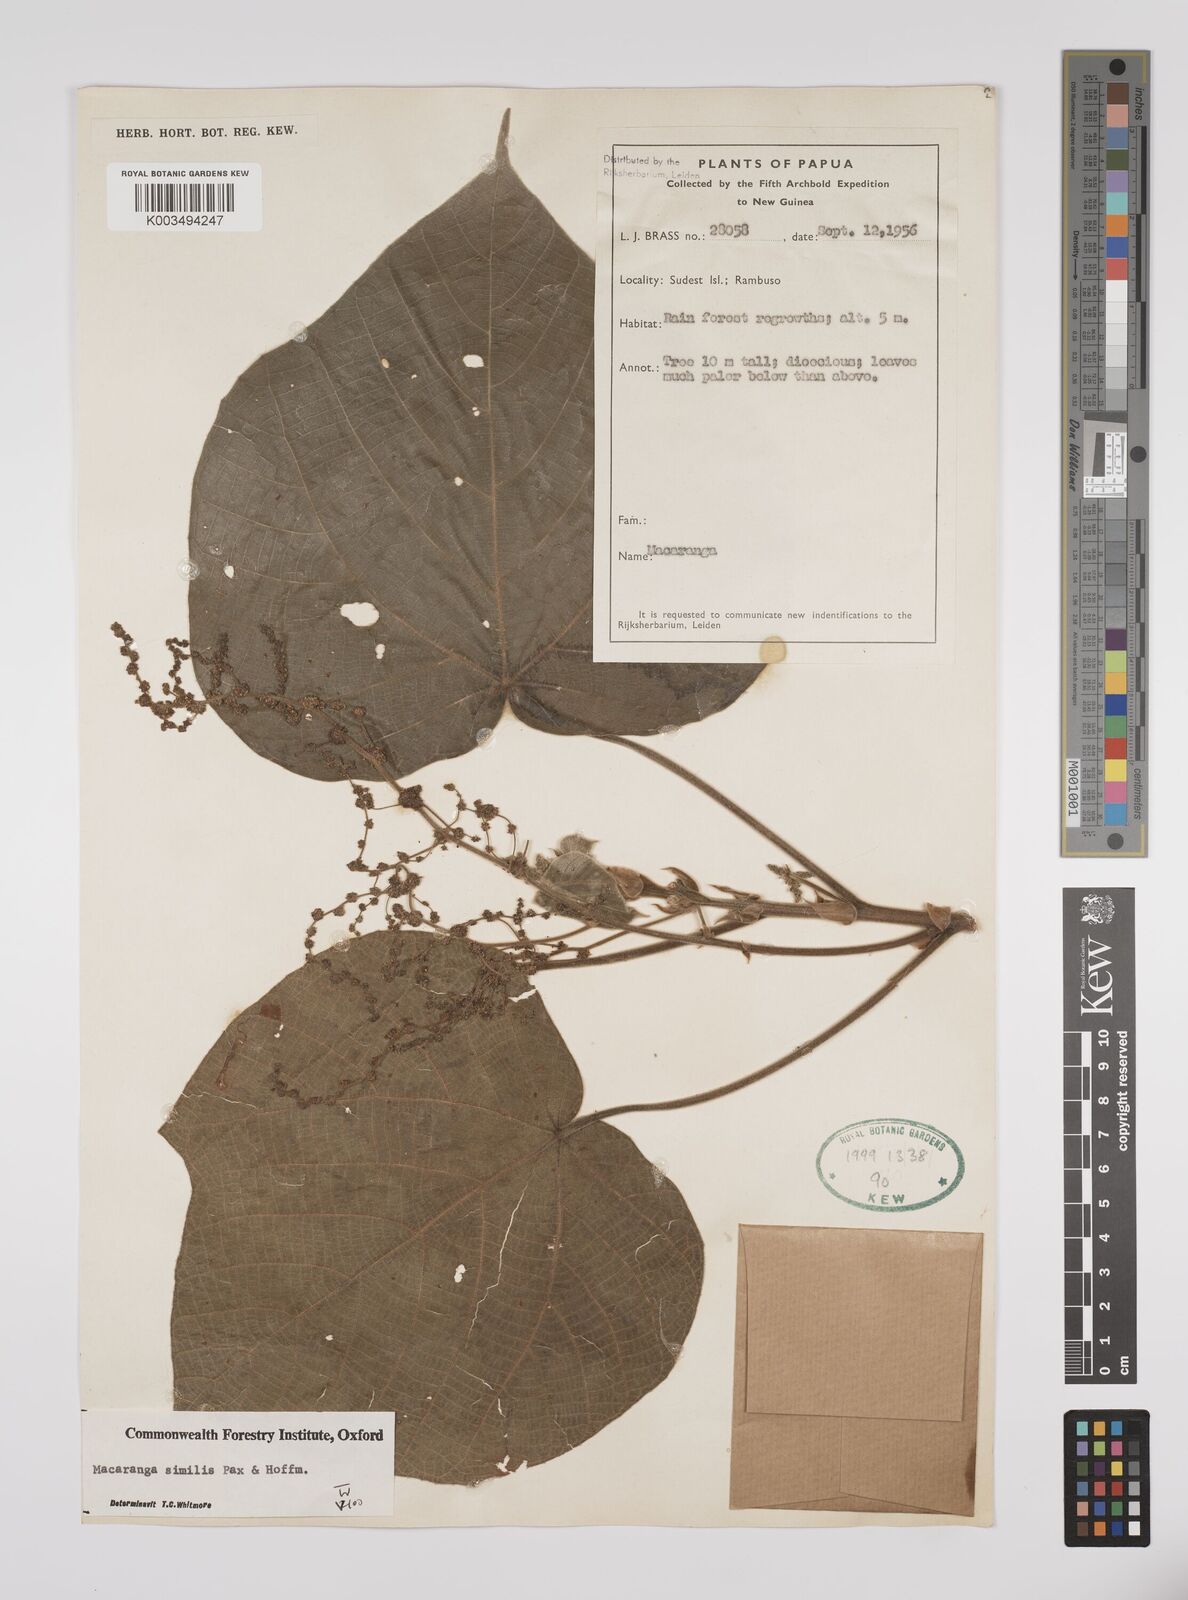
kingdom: Plantae
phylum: Tracheophyta
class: Magnoliopsida
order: Malpighiales
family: Euphorbiaceae
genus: Macaranga
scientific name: Macaranga similis
